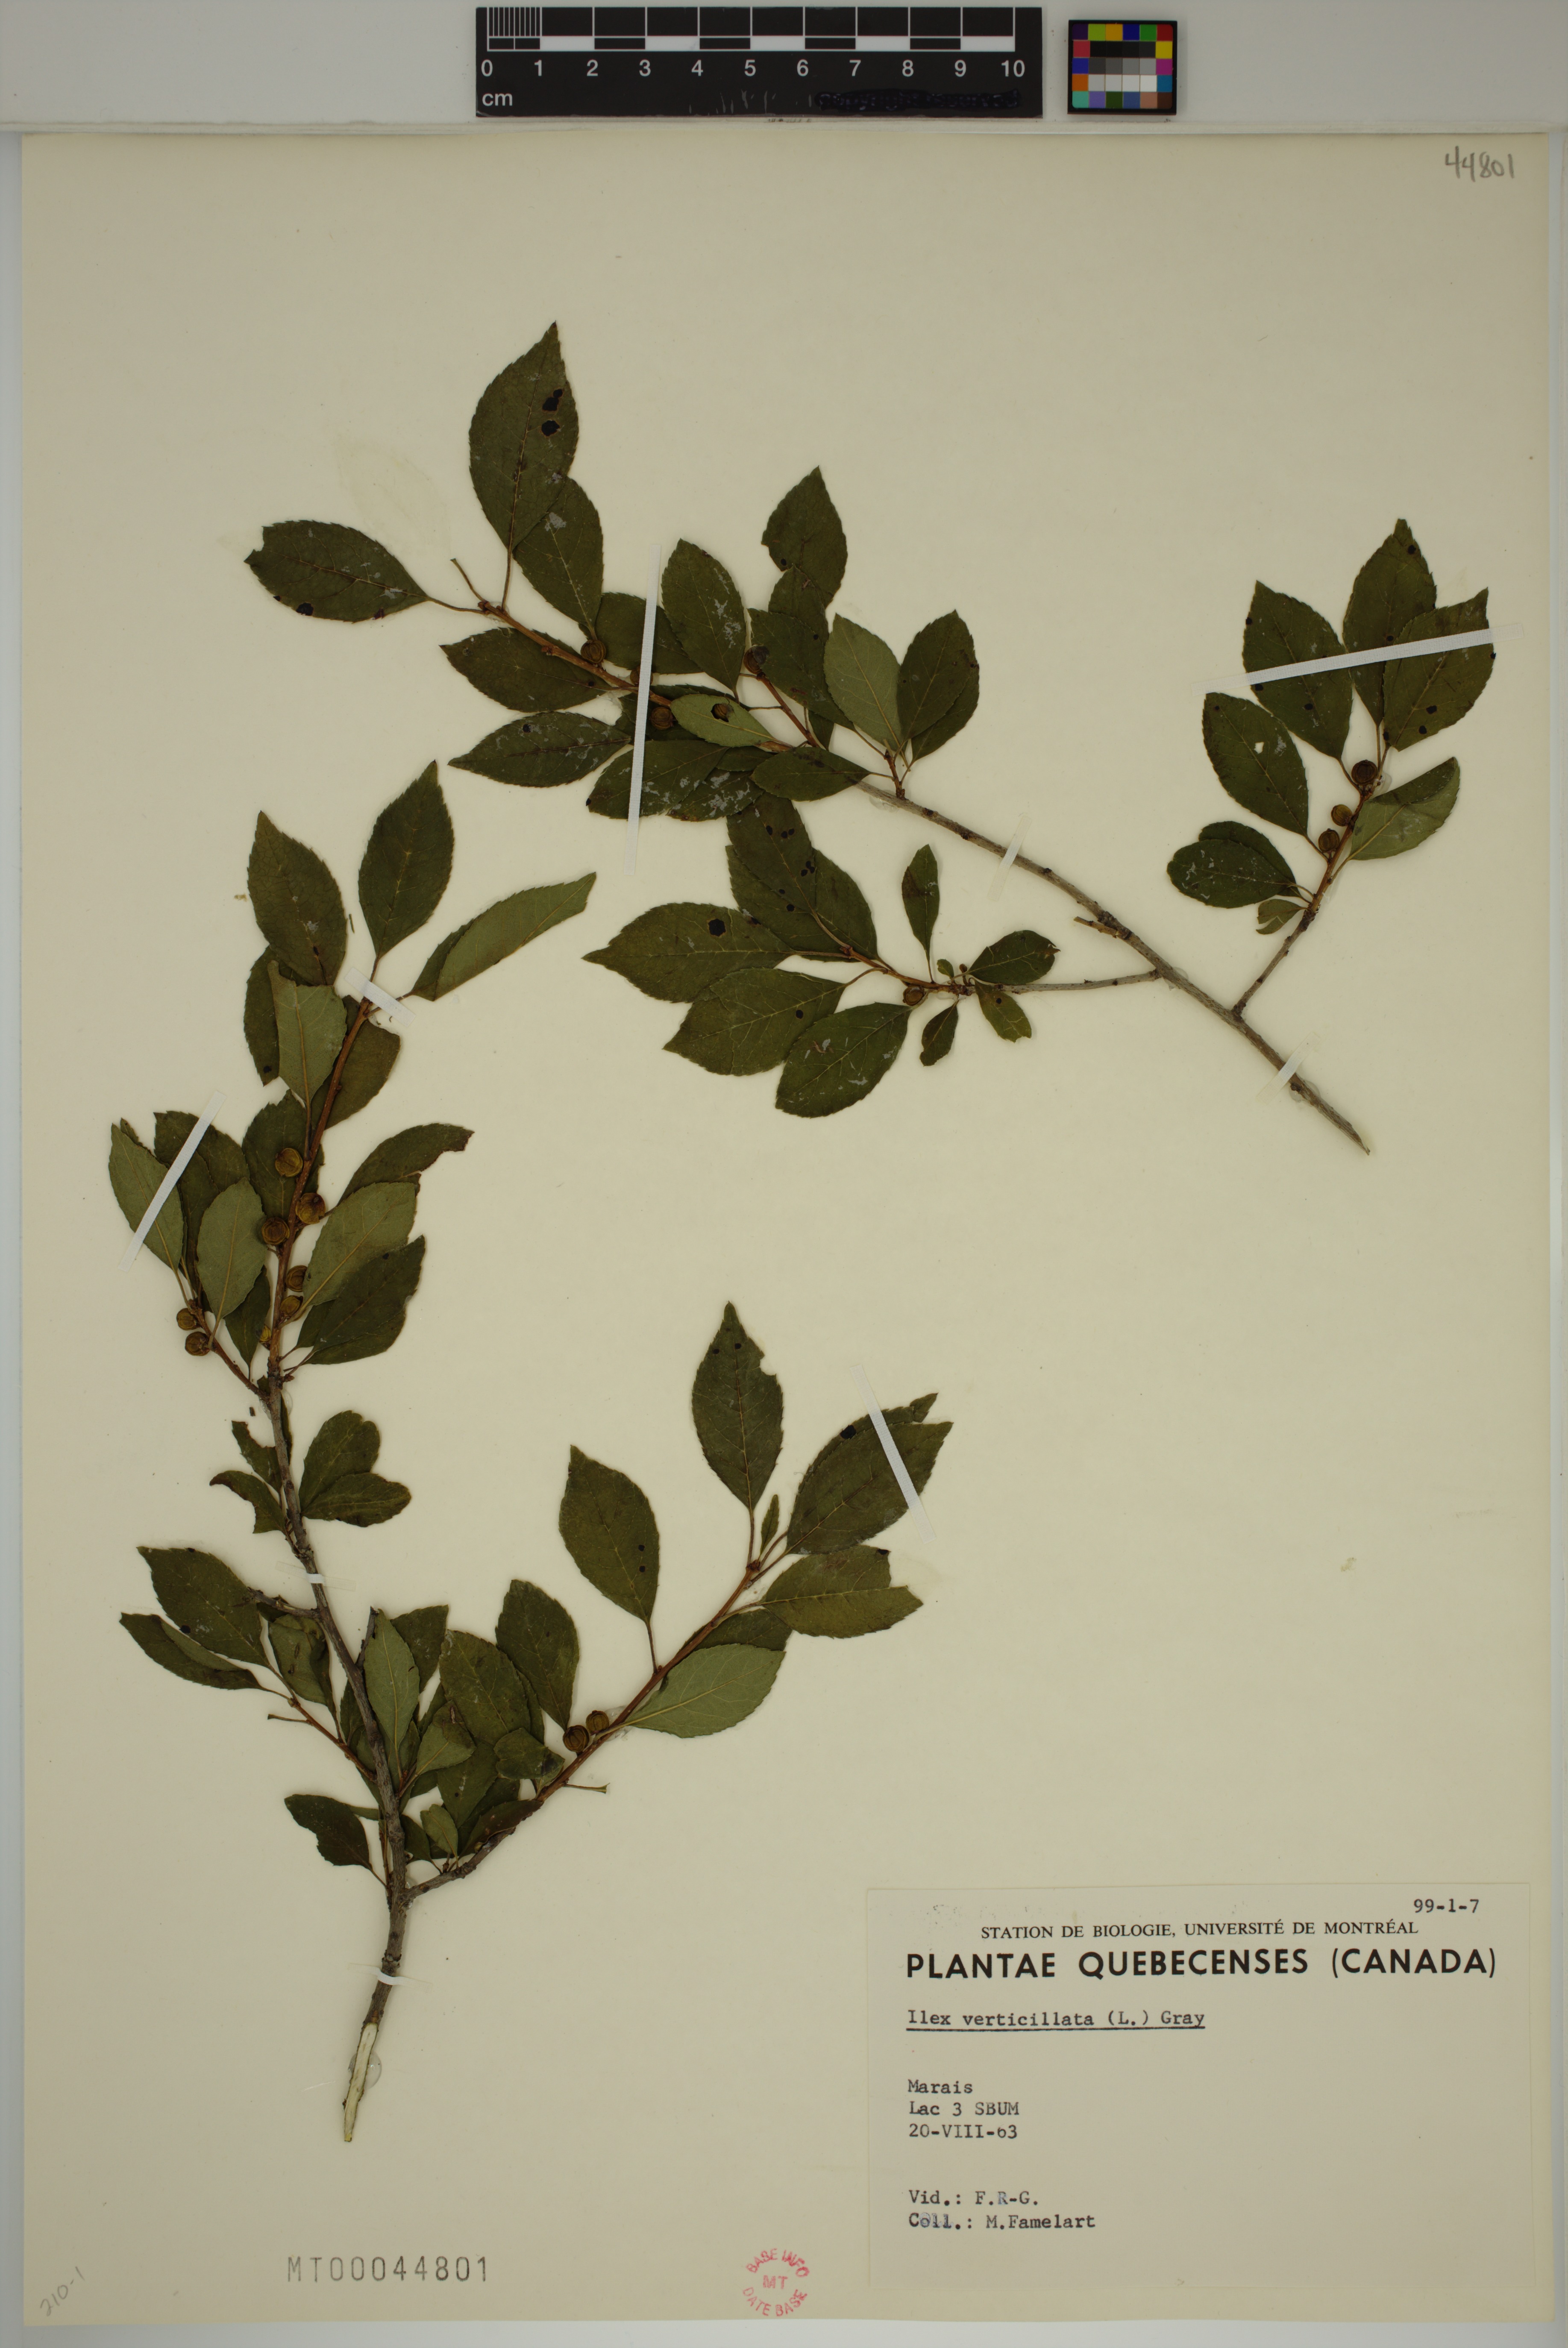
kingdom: Plantae
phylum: Tracheophyta
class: Magnoliopsida
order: Aquifoliales
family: Aquifoliaceae
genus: Ilex
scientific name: Ilex verticillata
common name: Virginia winterberry
